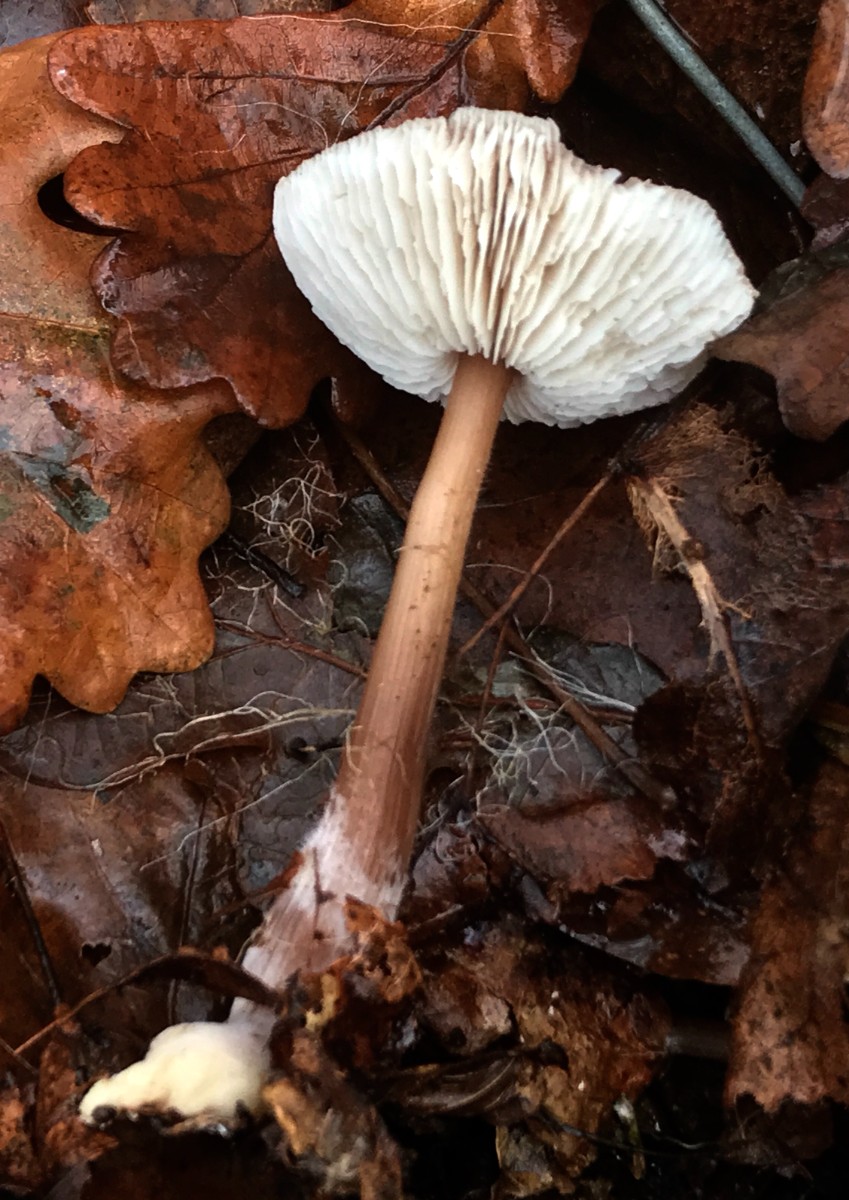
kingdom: Fungi
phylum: Basidiomycota
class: Agaricomycetes
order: Agaricales
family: Omphalotaceae
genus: Rhodocollybia
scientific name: Rhodocollybia butyracea
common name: keglestokket fladhat
